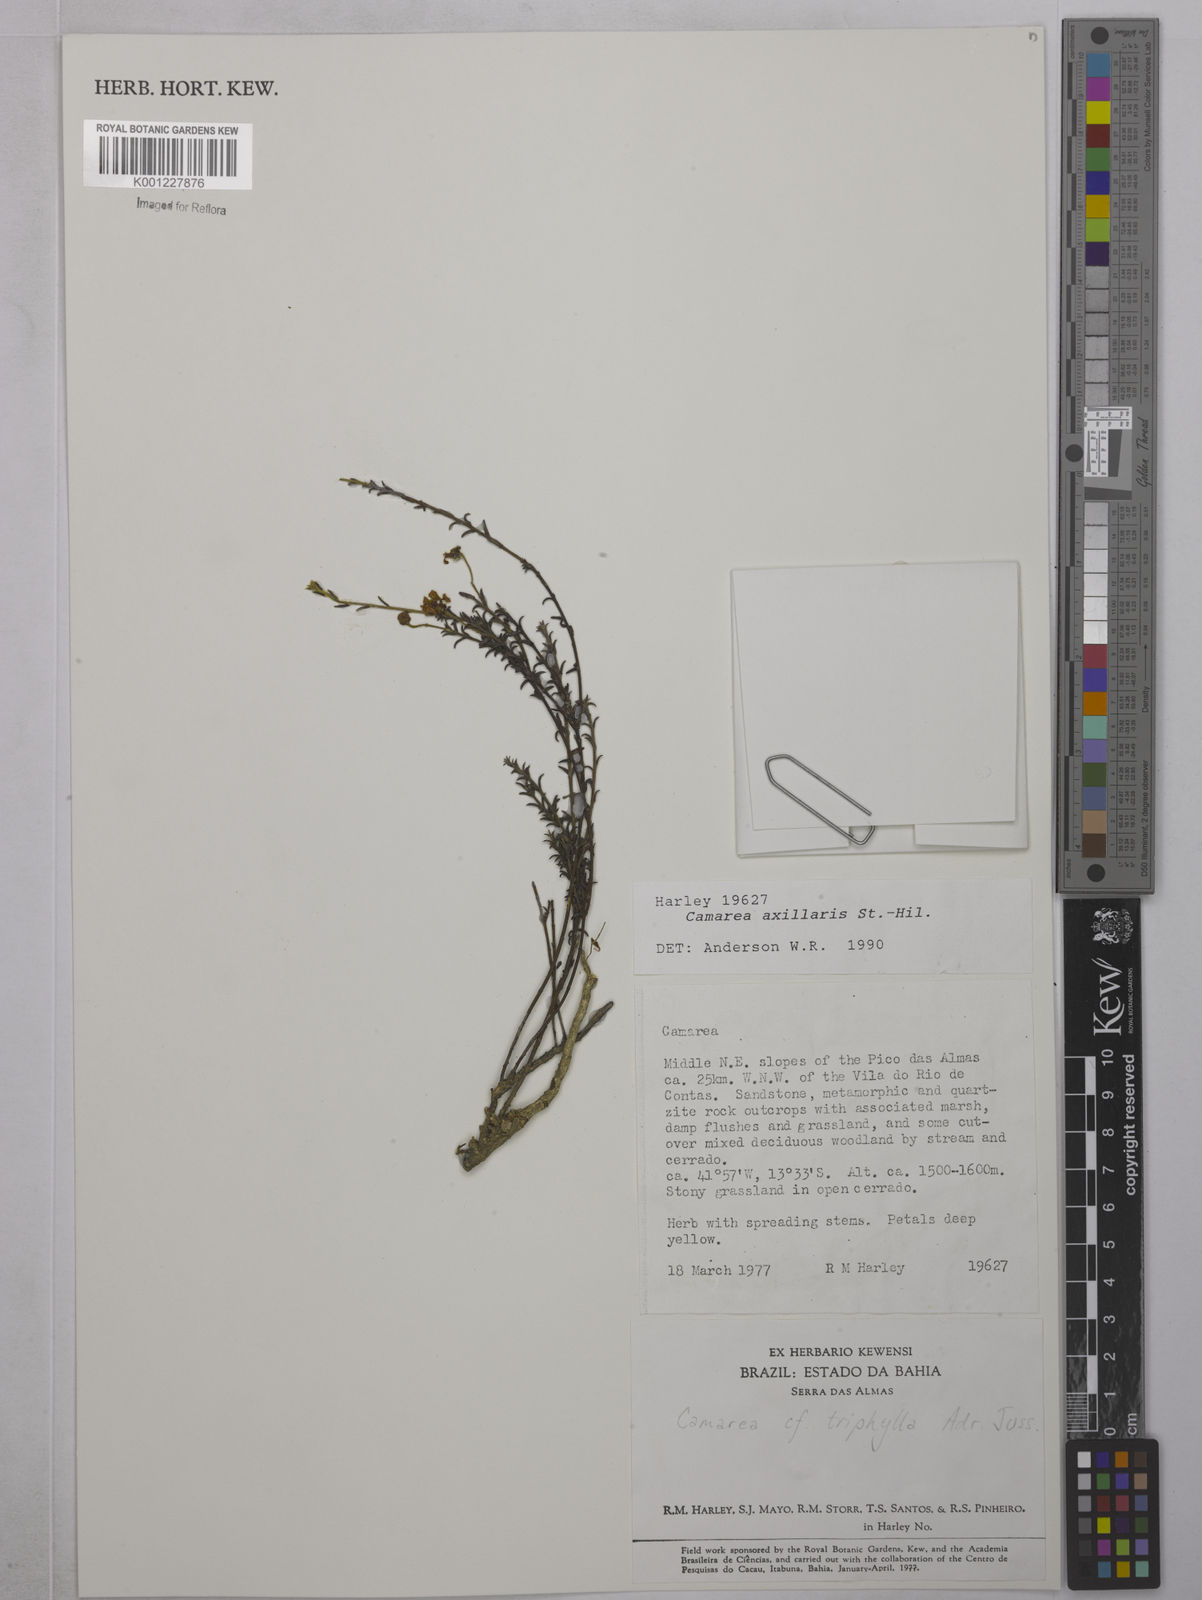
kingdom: Plantae
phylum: Tracheophyta
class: Magnoliopsida
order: Malpighiales
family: Malpighiaceae
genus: Camarea
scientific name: Camarea axillaris
